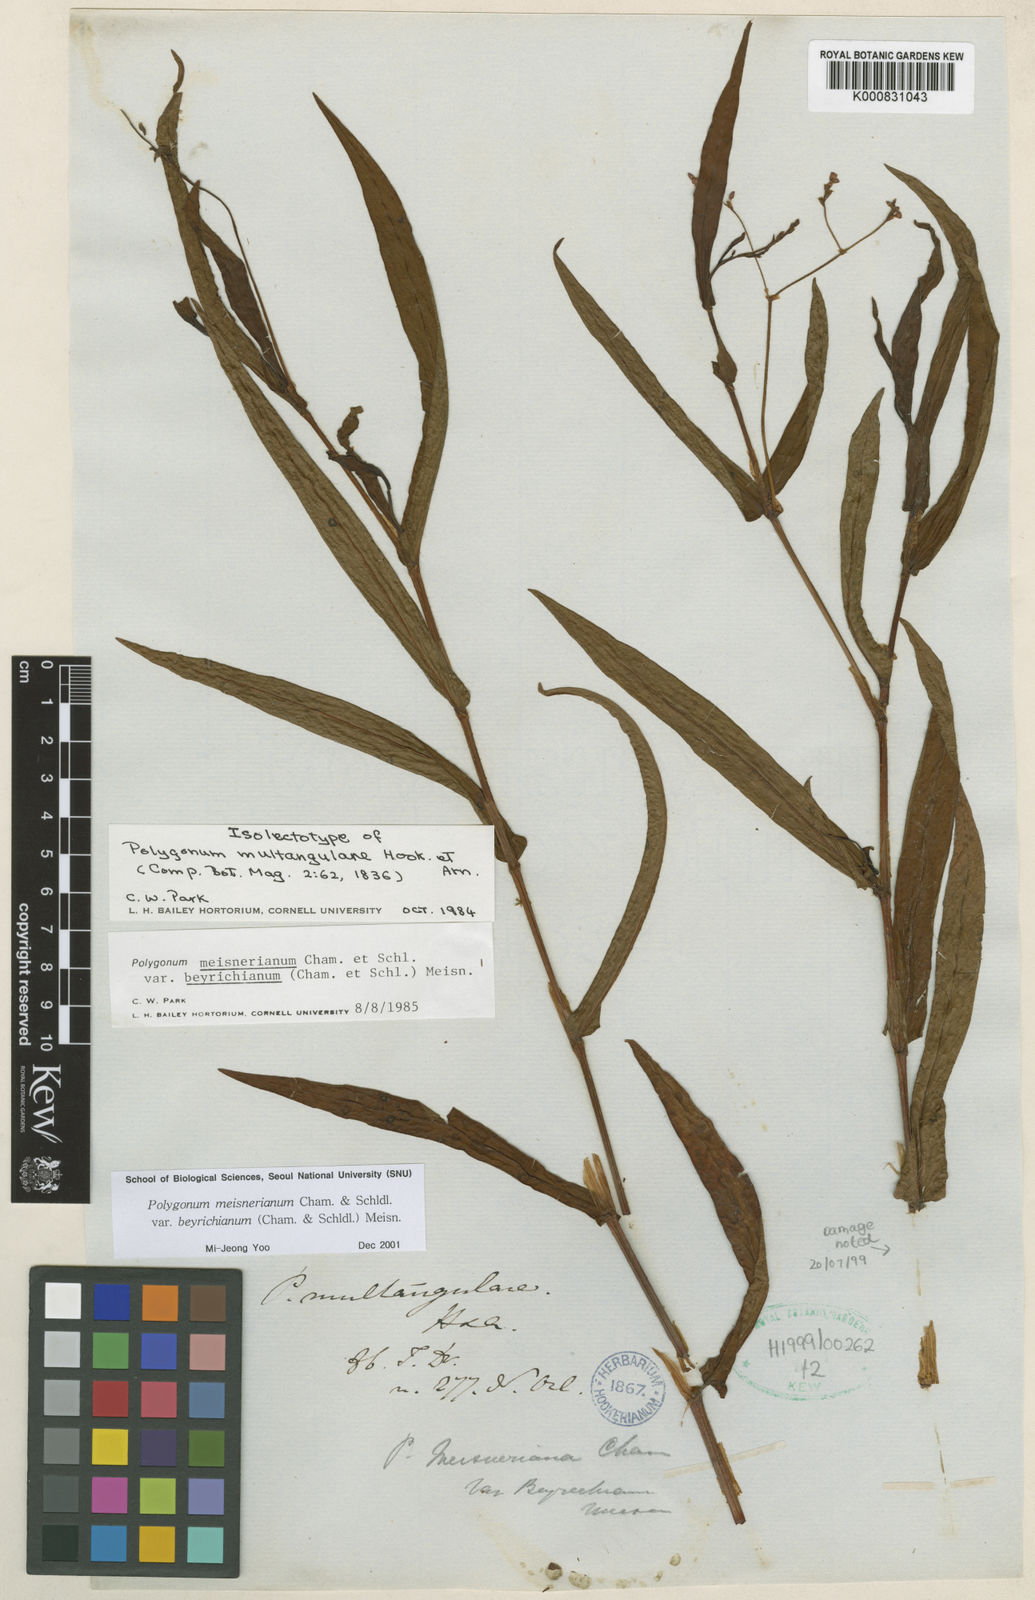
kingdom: Plantae
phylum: Tracheophyta
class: Magnoliopsida
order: Caryophyllales
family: Polygonaceae
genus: Persicaria
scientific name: Persicaria meisneriana
